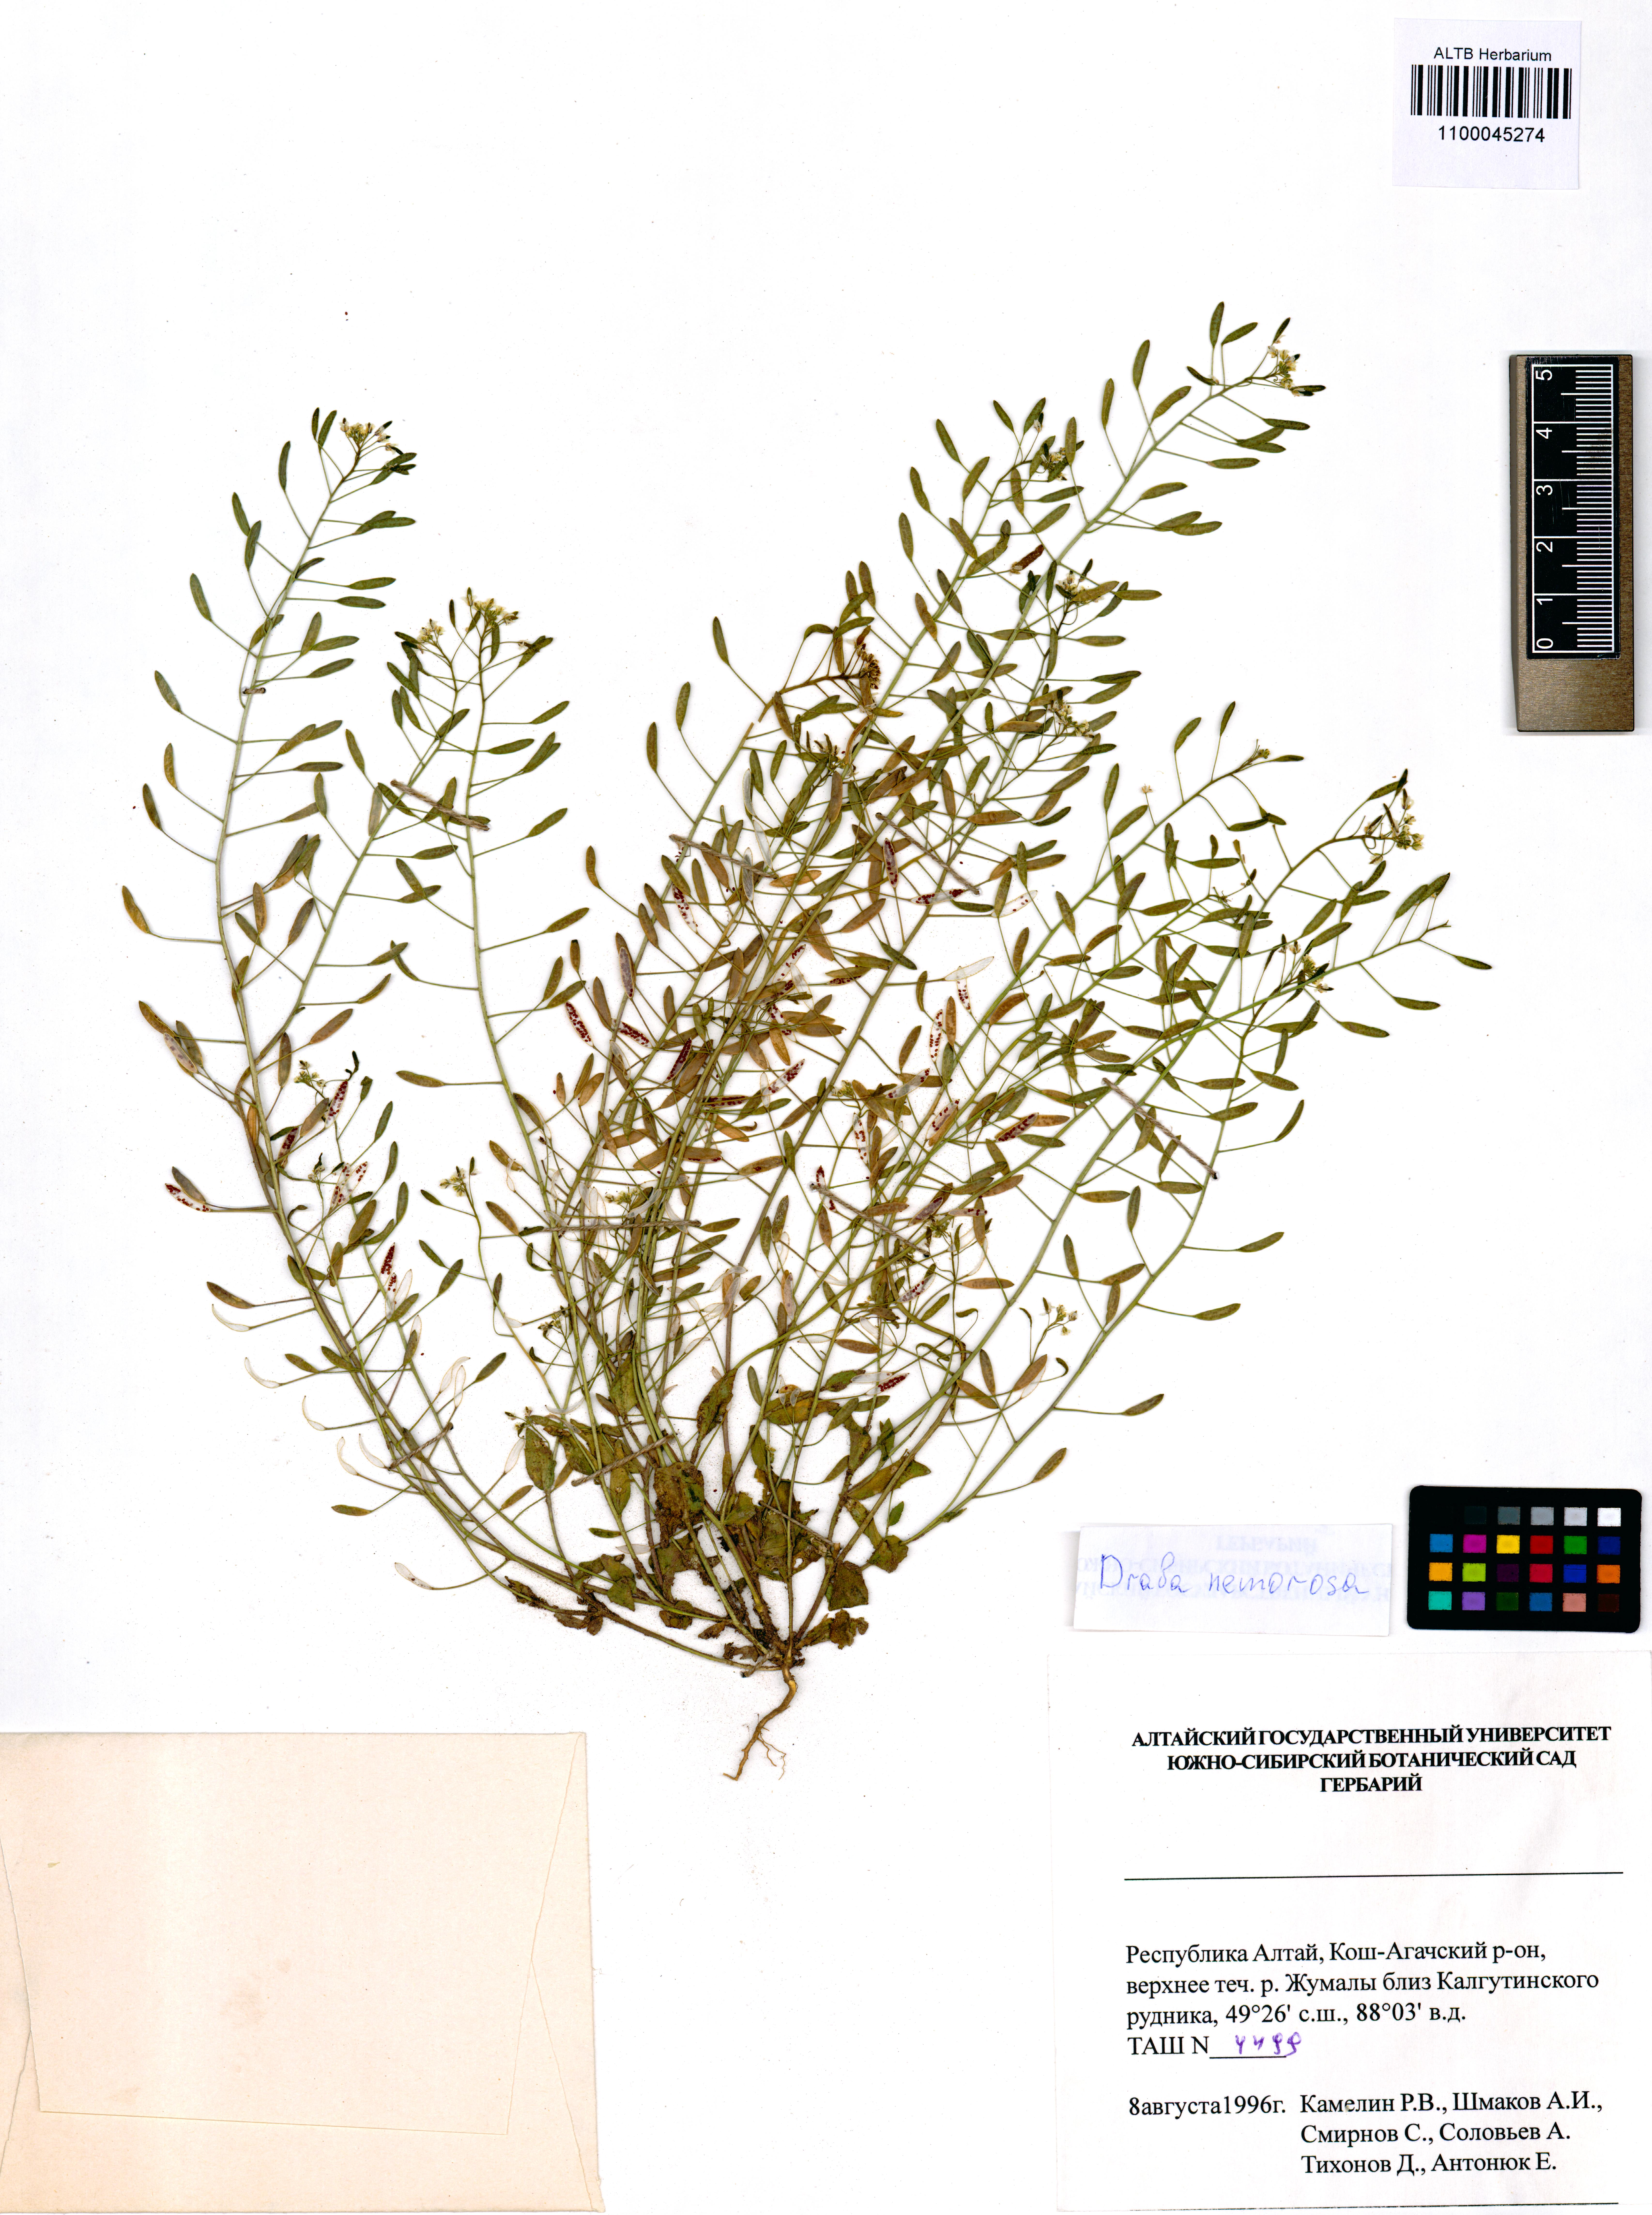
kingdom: Plantae
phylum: Tracheophyta
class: Magnoliopsida
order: Brassicales
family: Brassicaceae
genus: Draba
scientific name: Draba nemorosa
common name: Wood whitlow-grass
